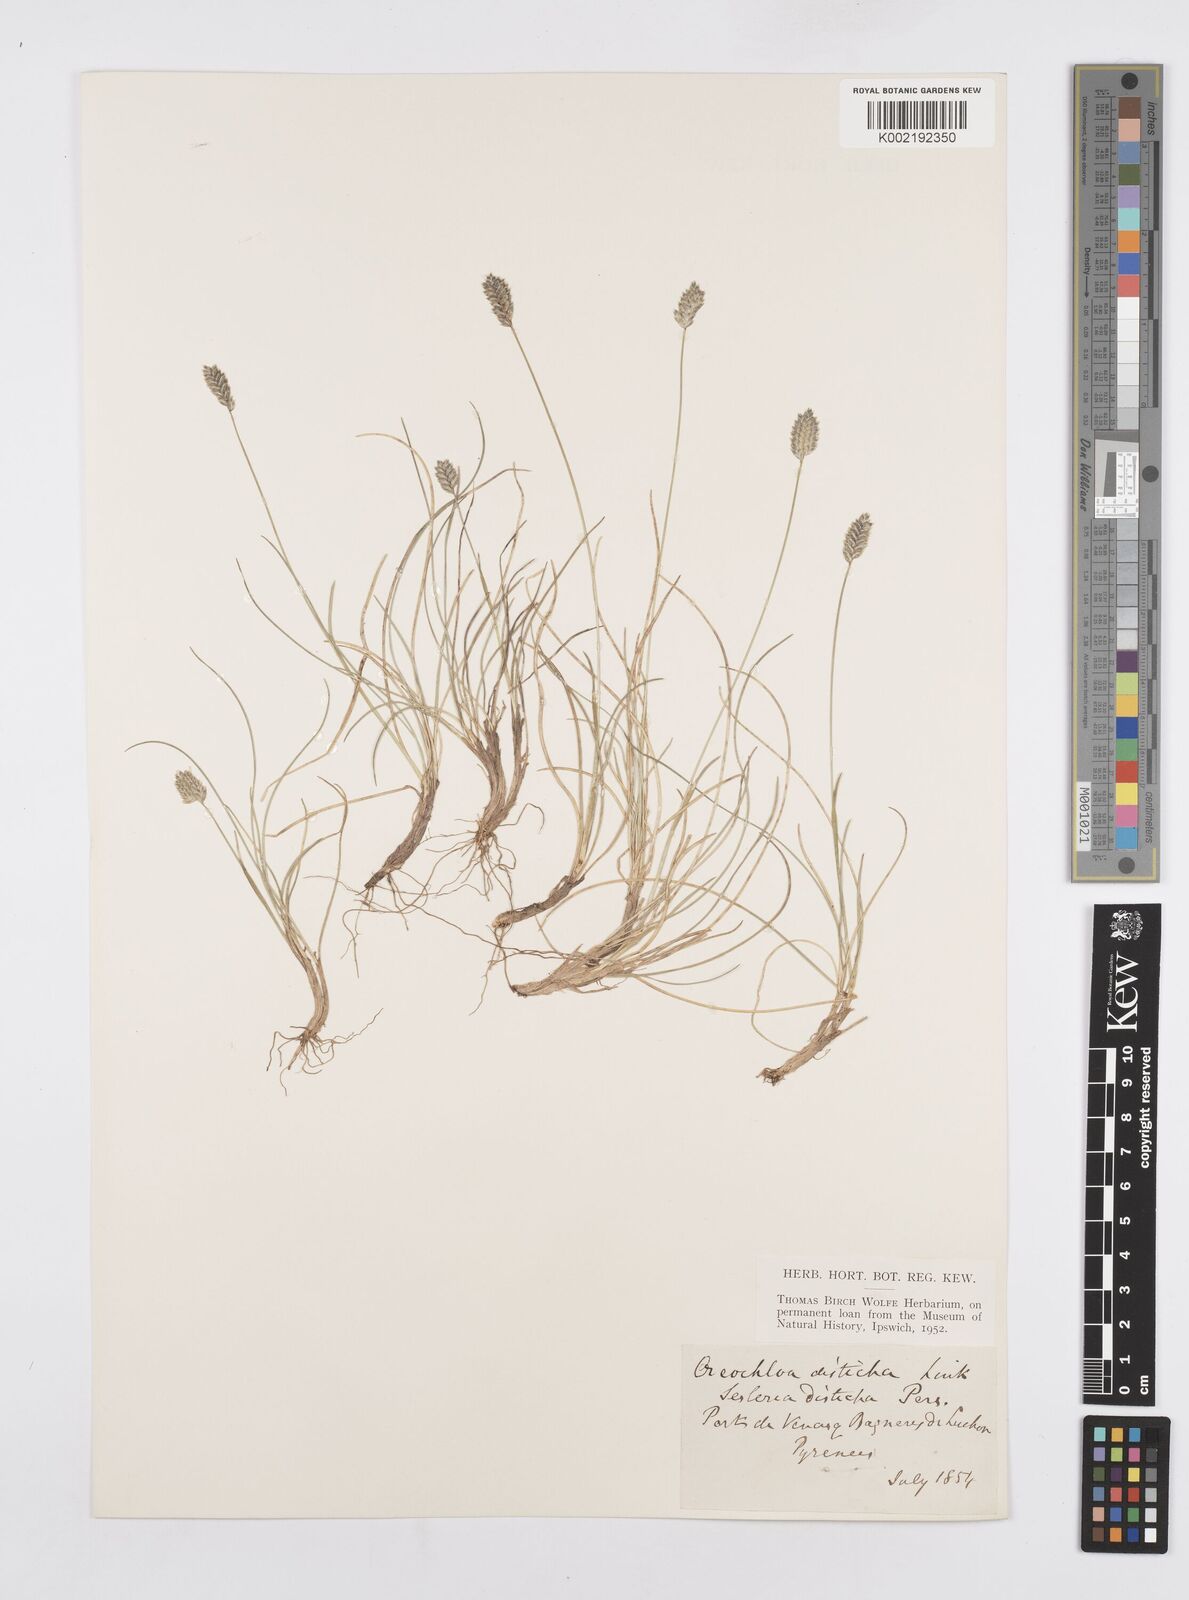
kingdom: Plantae
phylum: Tracheophyta
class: Liliopsida
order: Poales
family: Poaceae
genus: Oreochloa
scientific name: Oreochloa elegans
